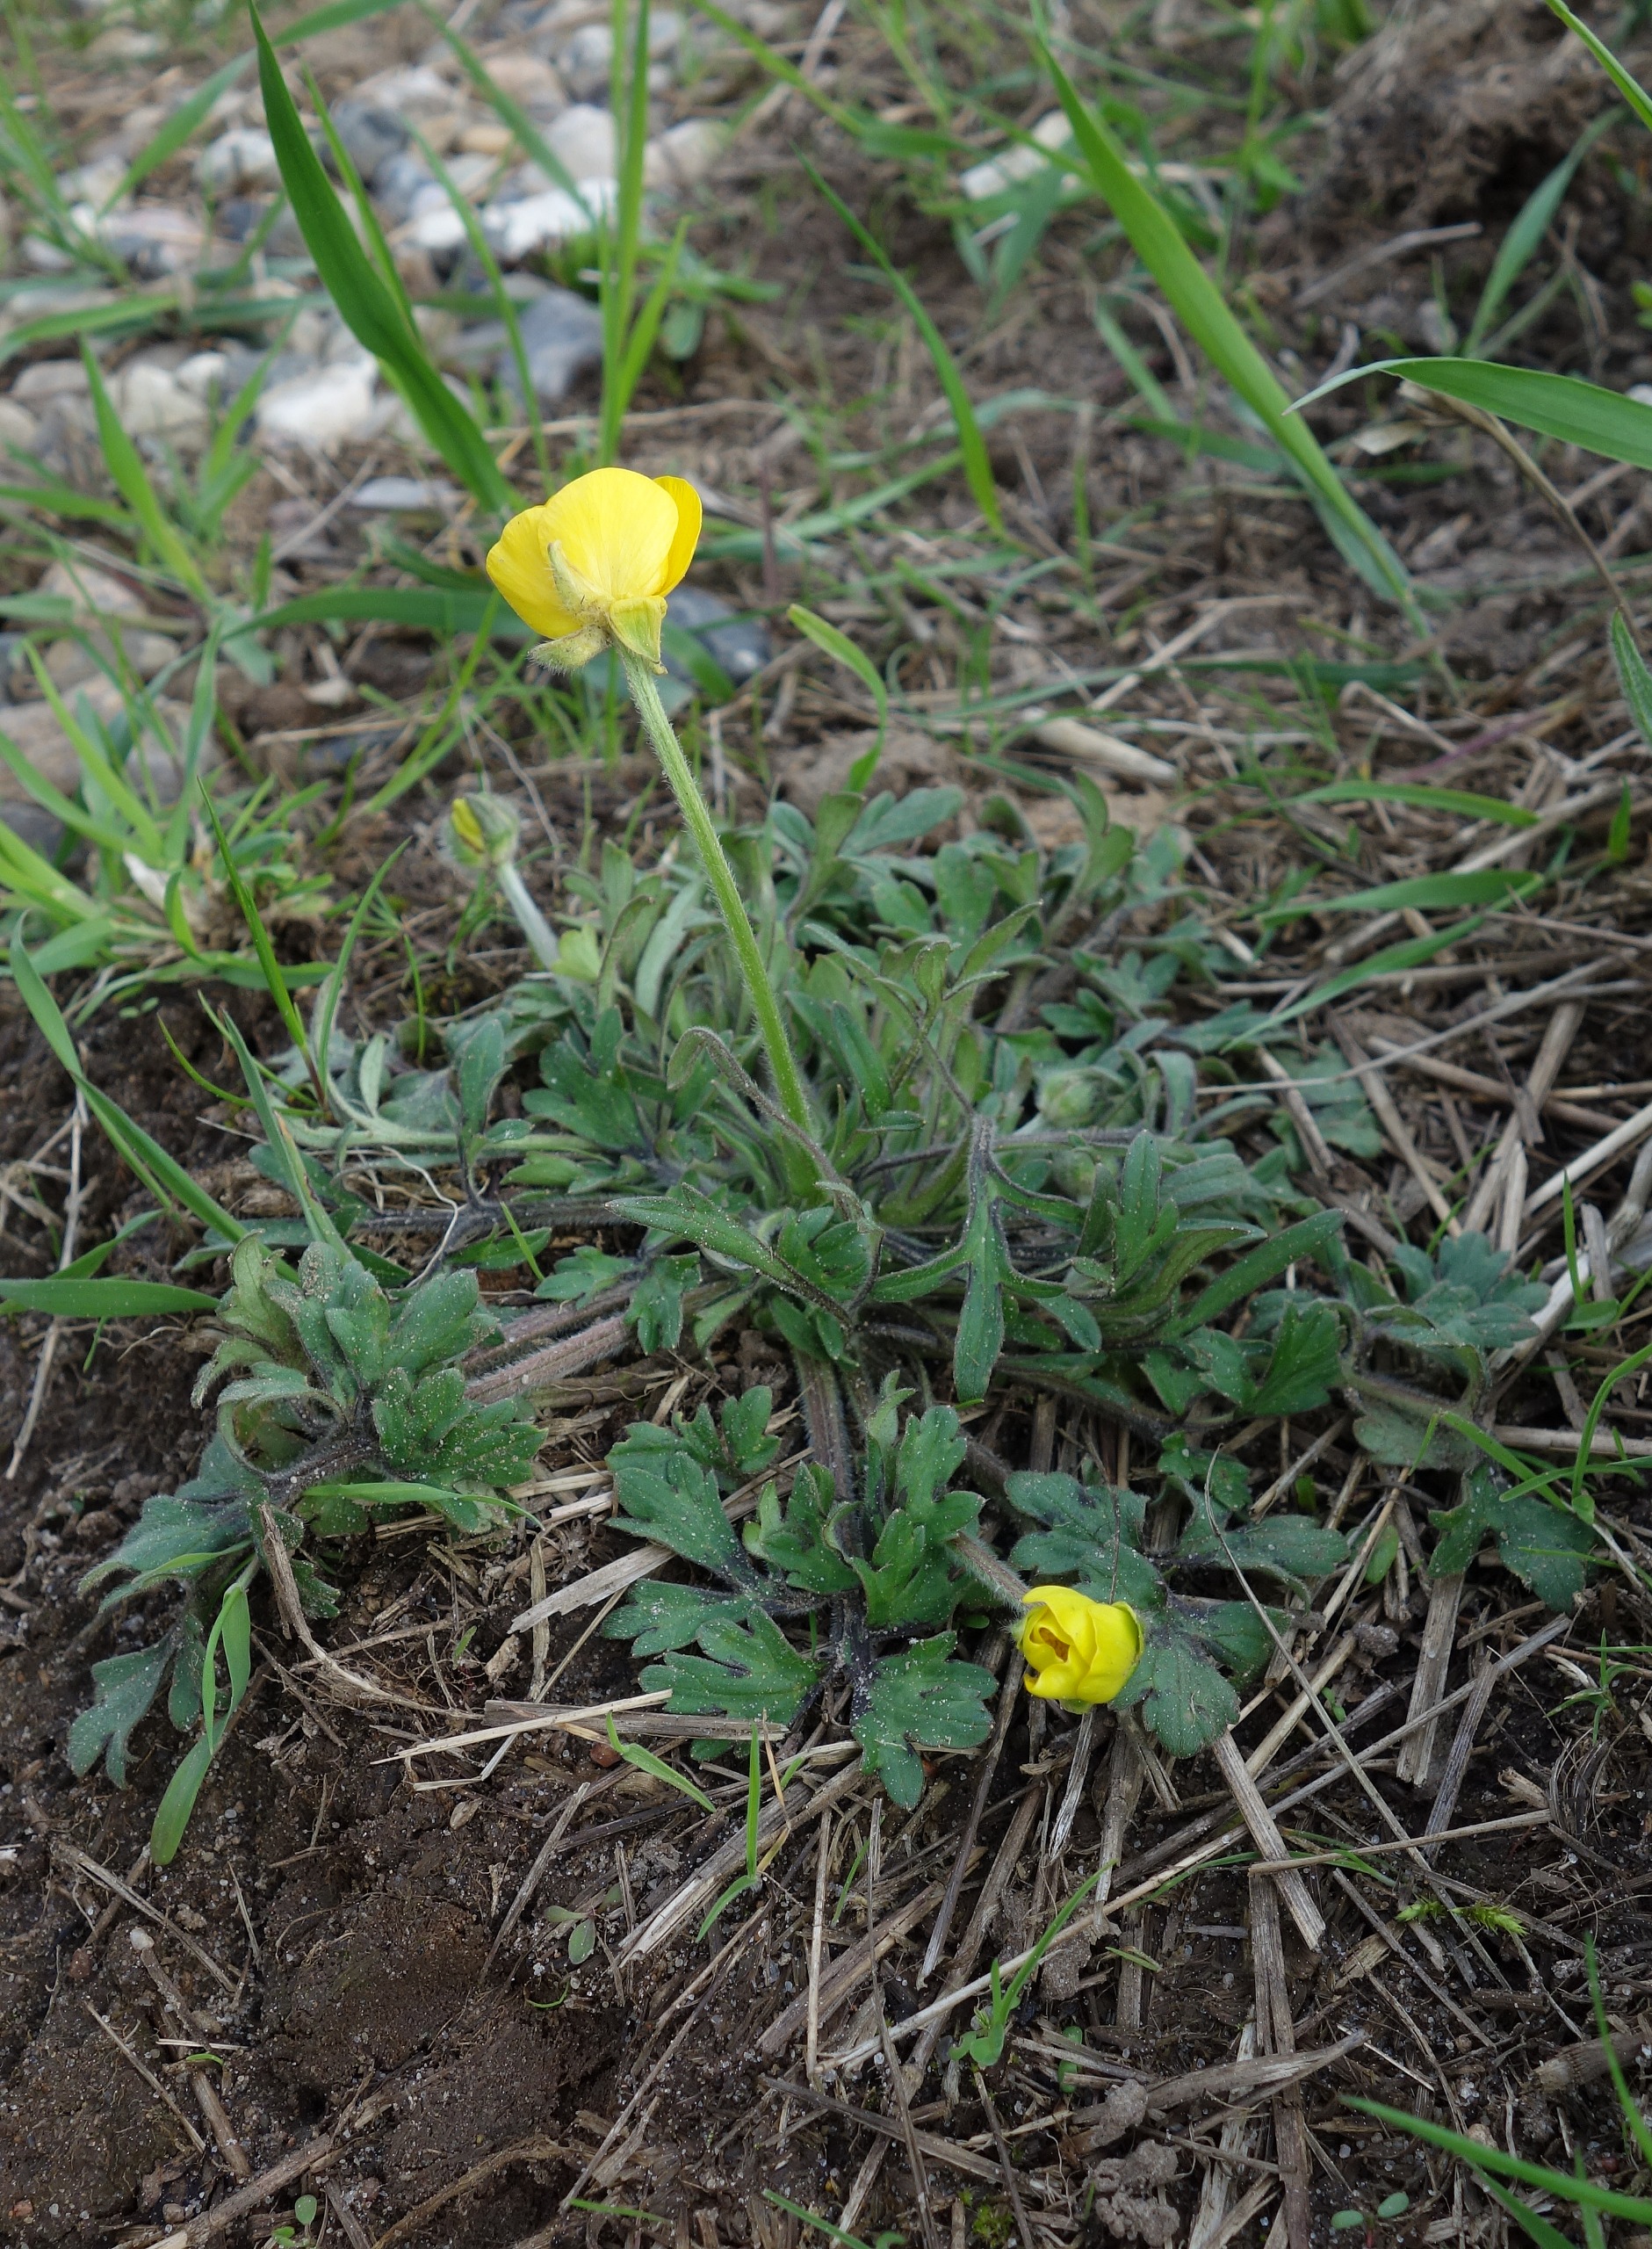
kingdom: Plantae
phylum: Tracheophyta
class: Magnoliopsida
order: Ranunculales
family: Ranunculaceae
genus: Ranunculus
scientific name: Ranunculus bulbosus
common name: Knold-ranunkel
